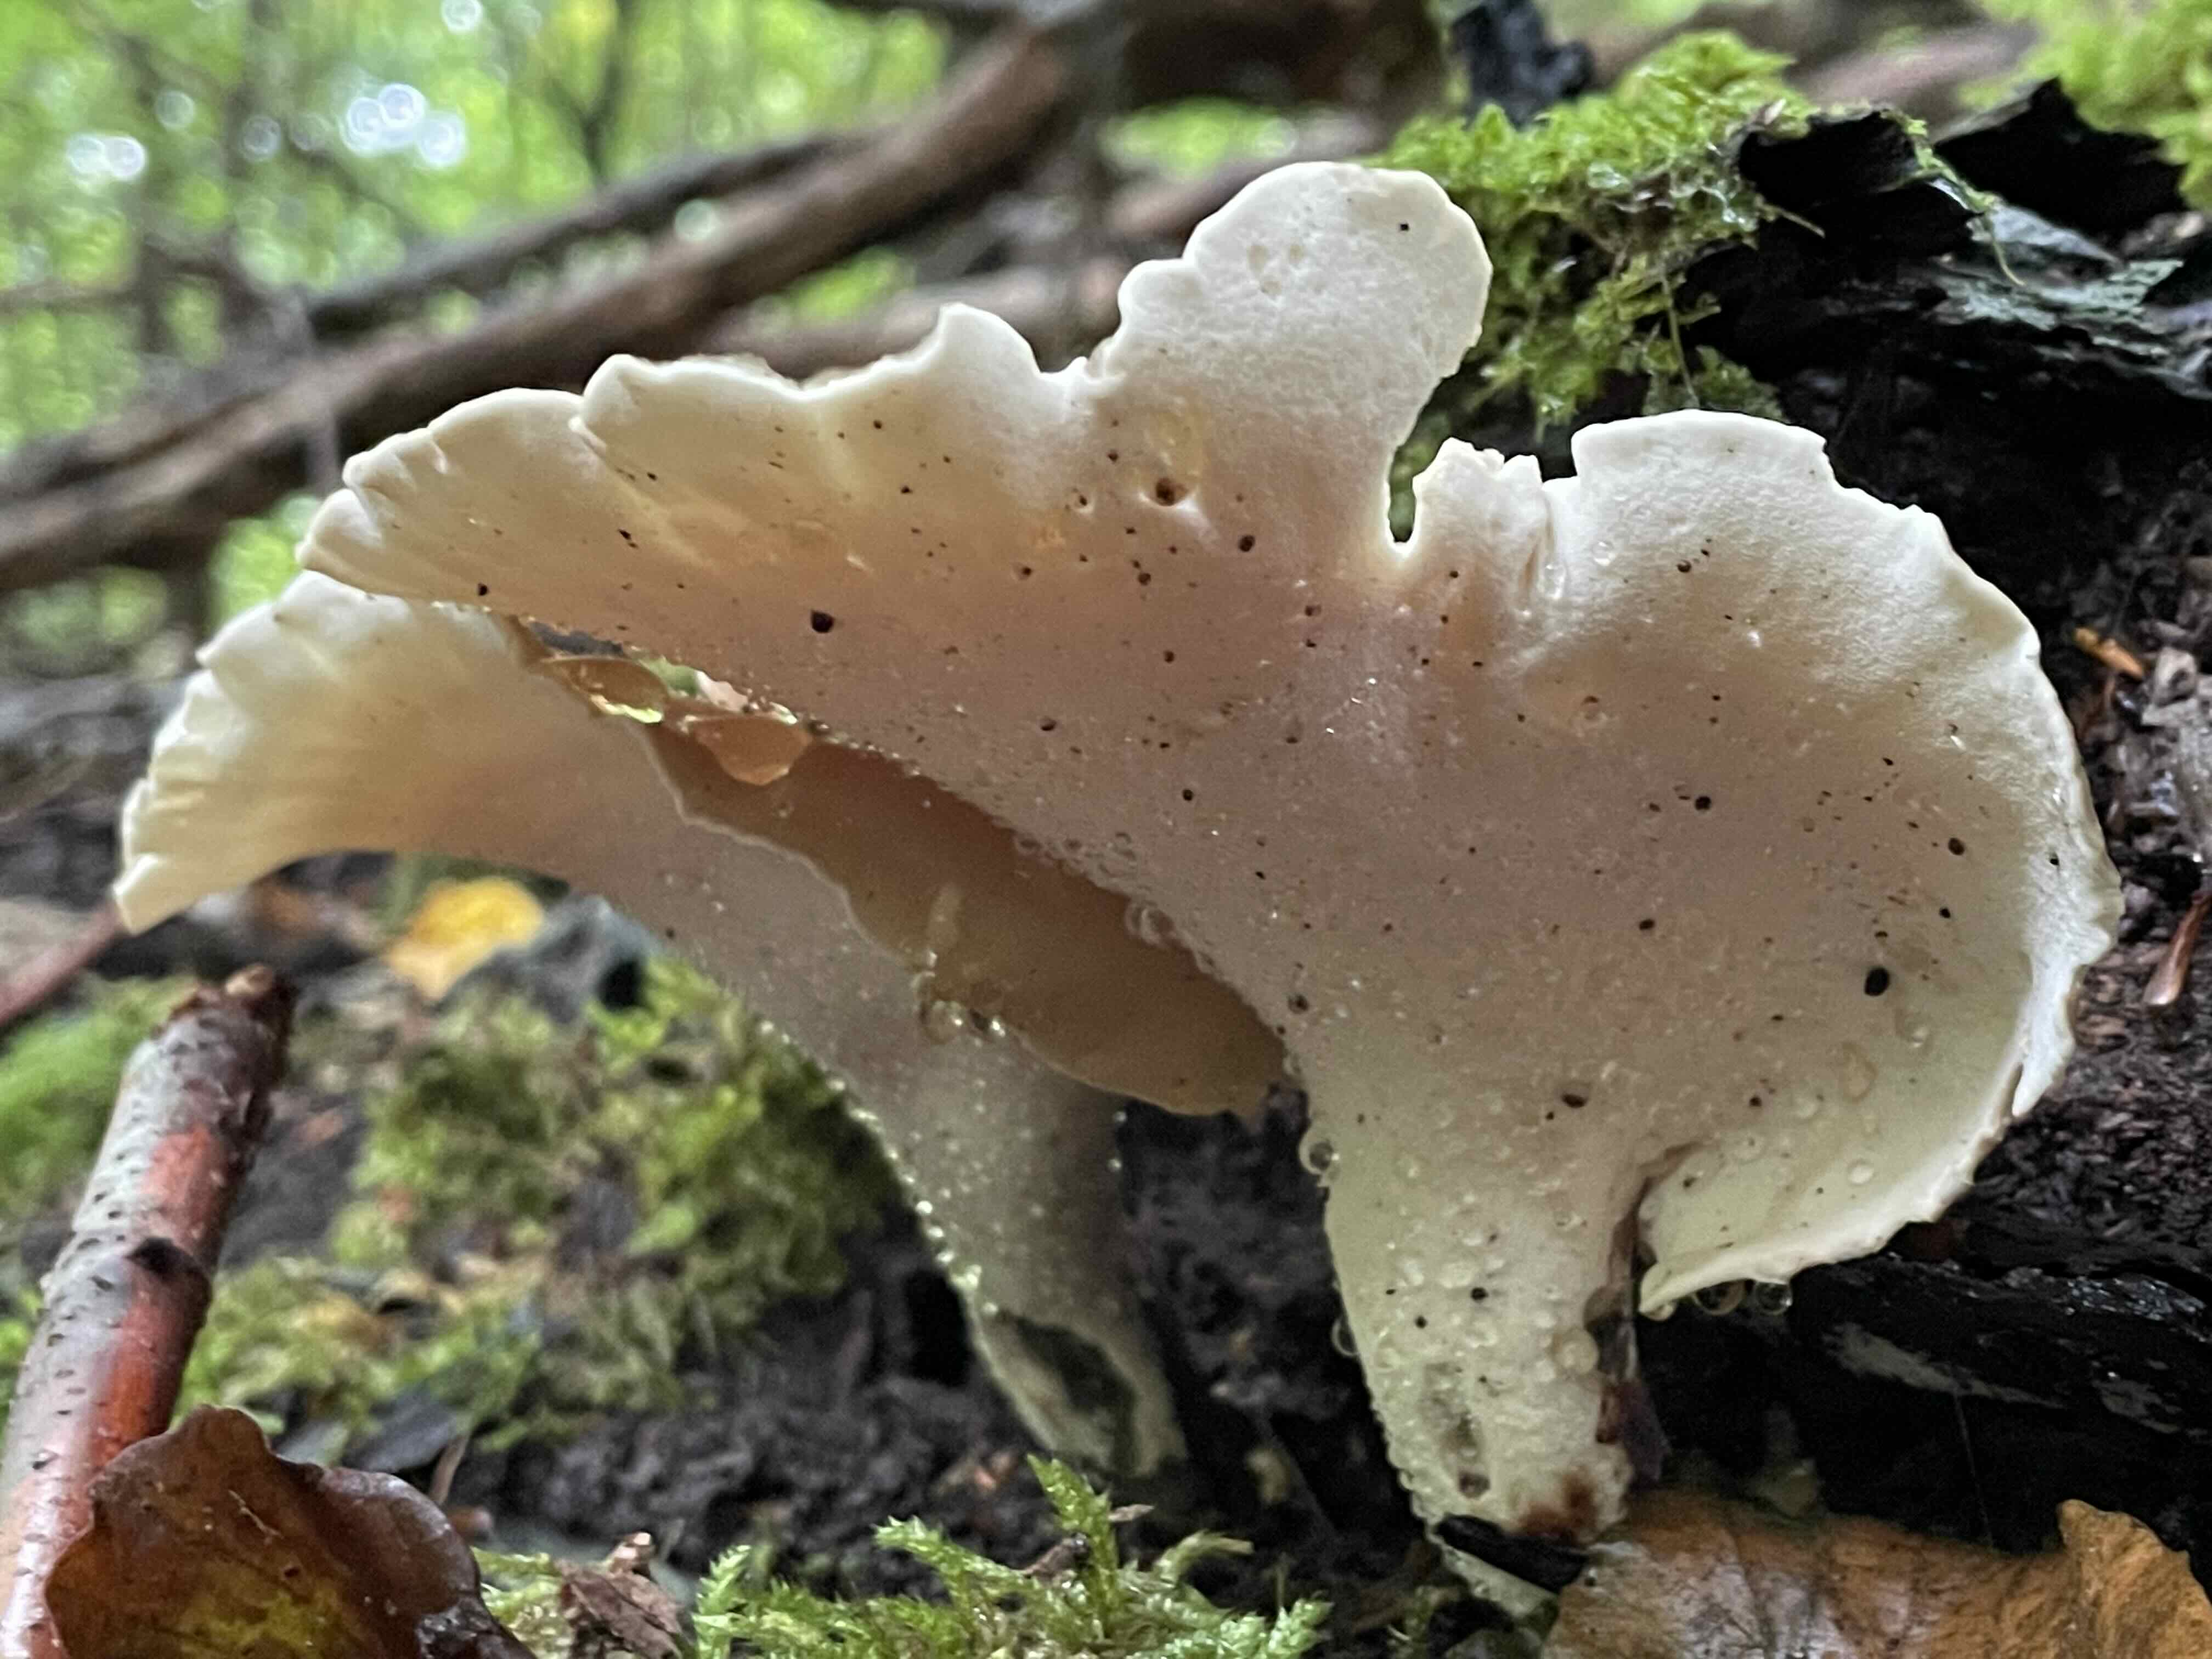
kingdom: Fungi
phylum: Basidiomycota
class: Agaricomycetes
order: Polyporales
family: Polyporaceae
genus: Picipes
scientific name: Picipes badius
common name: kastaniebrun stilkporesvamp
